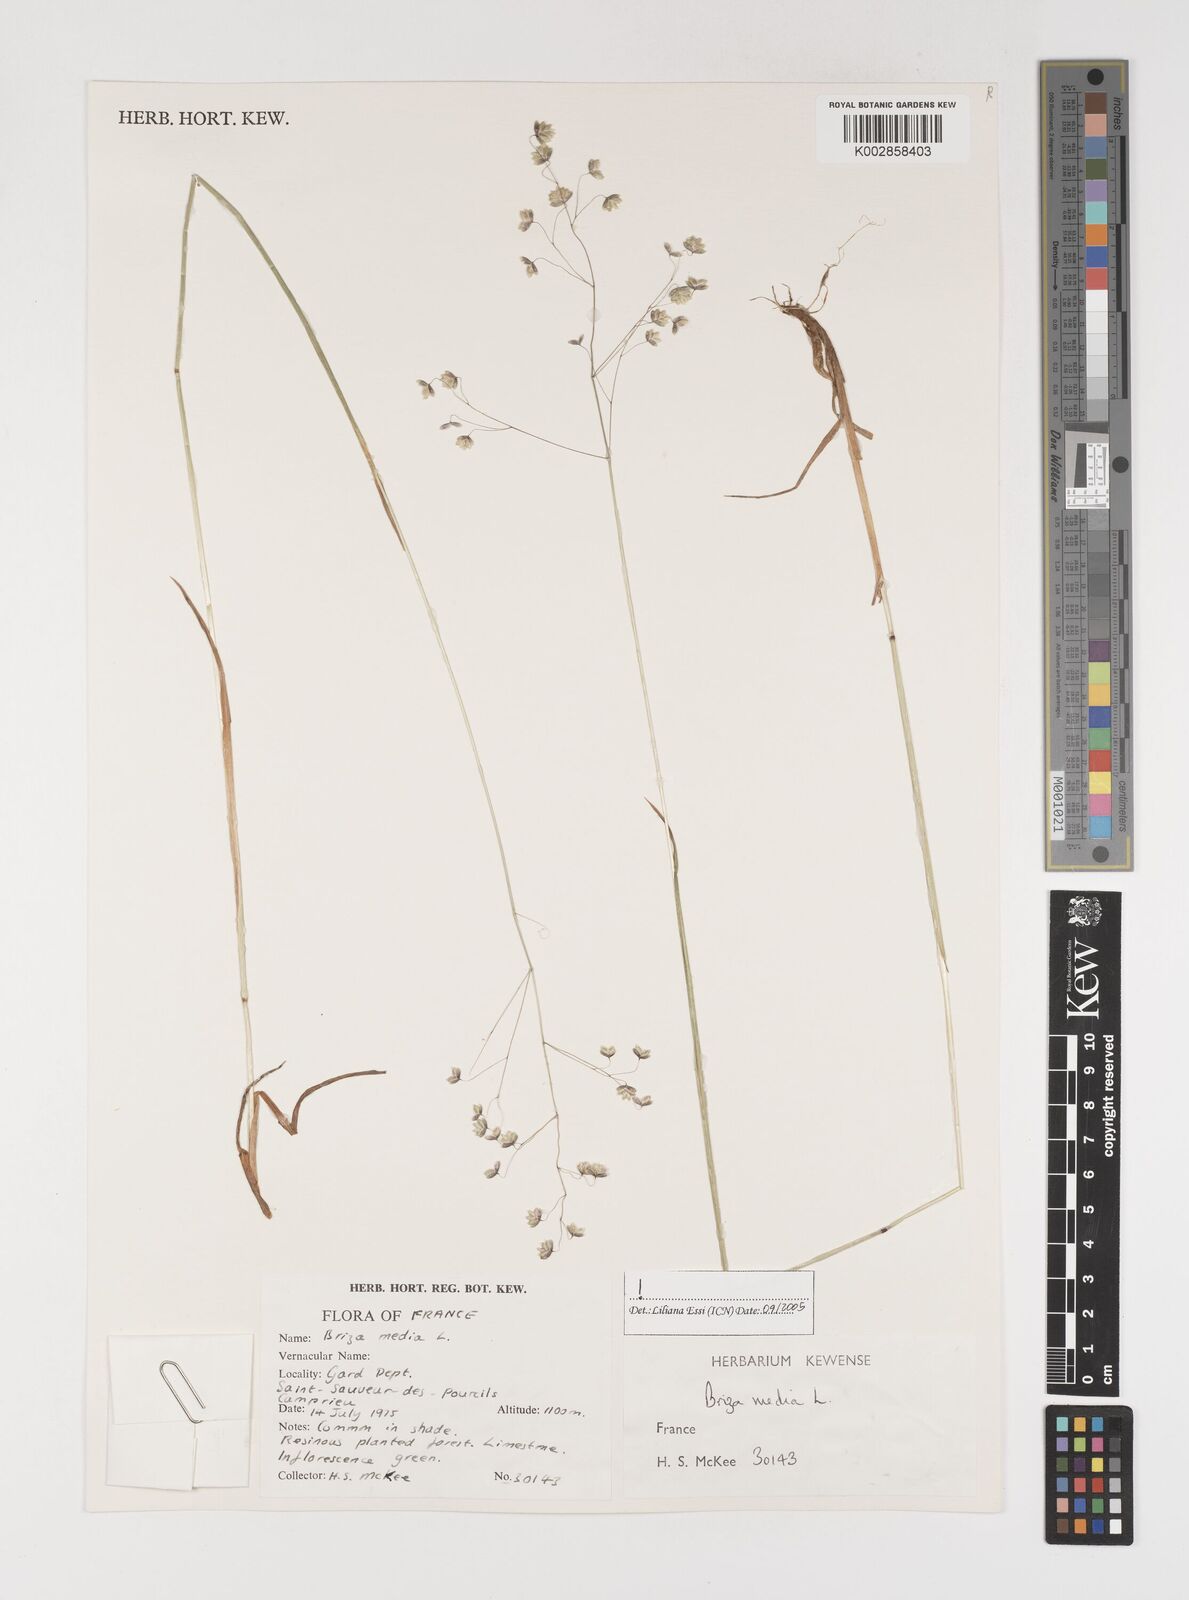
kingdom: Plantae
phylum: Tracheophyta
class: Liliopsida
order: Poales
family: Poaceae
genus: Briza
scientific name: Briza media
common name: Quaking grass
